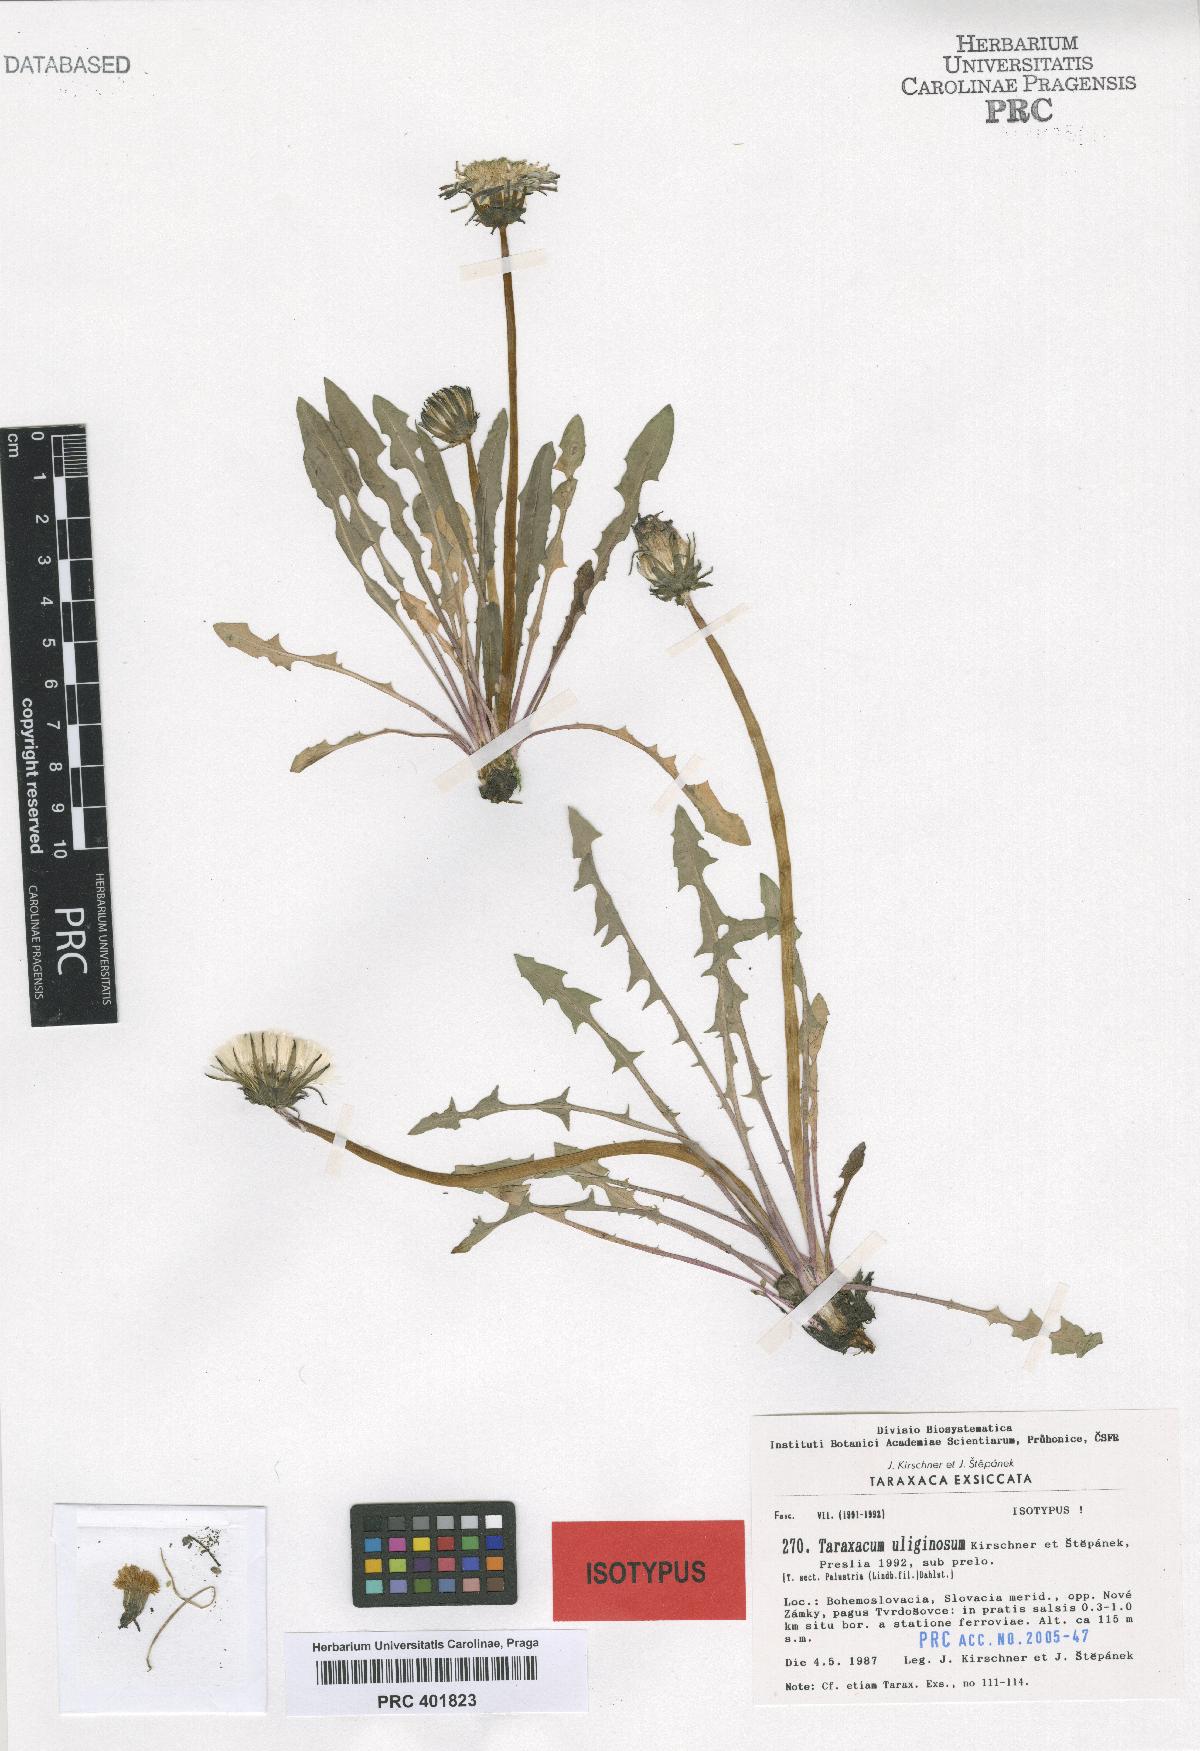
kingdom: Plantae
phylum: Tracheophyta
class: Magnoliopsida
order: Asterales
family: Asteraceae
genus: Taraxacum
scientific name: Taraxacum uliginosum
